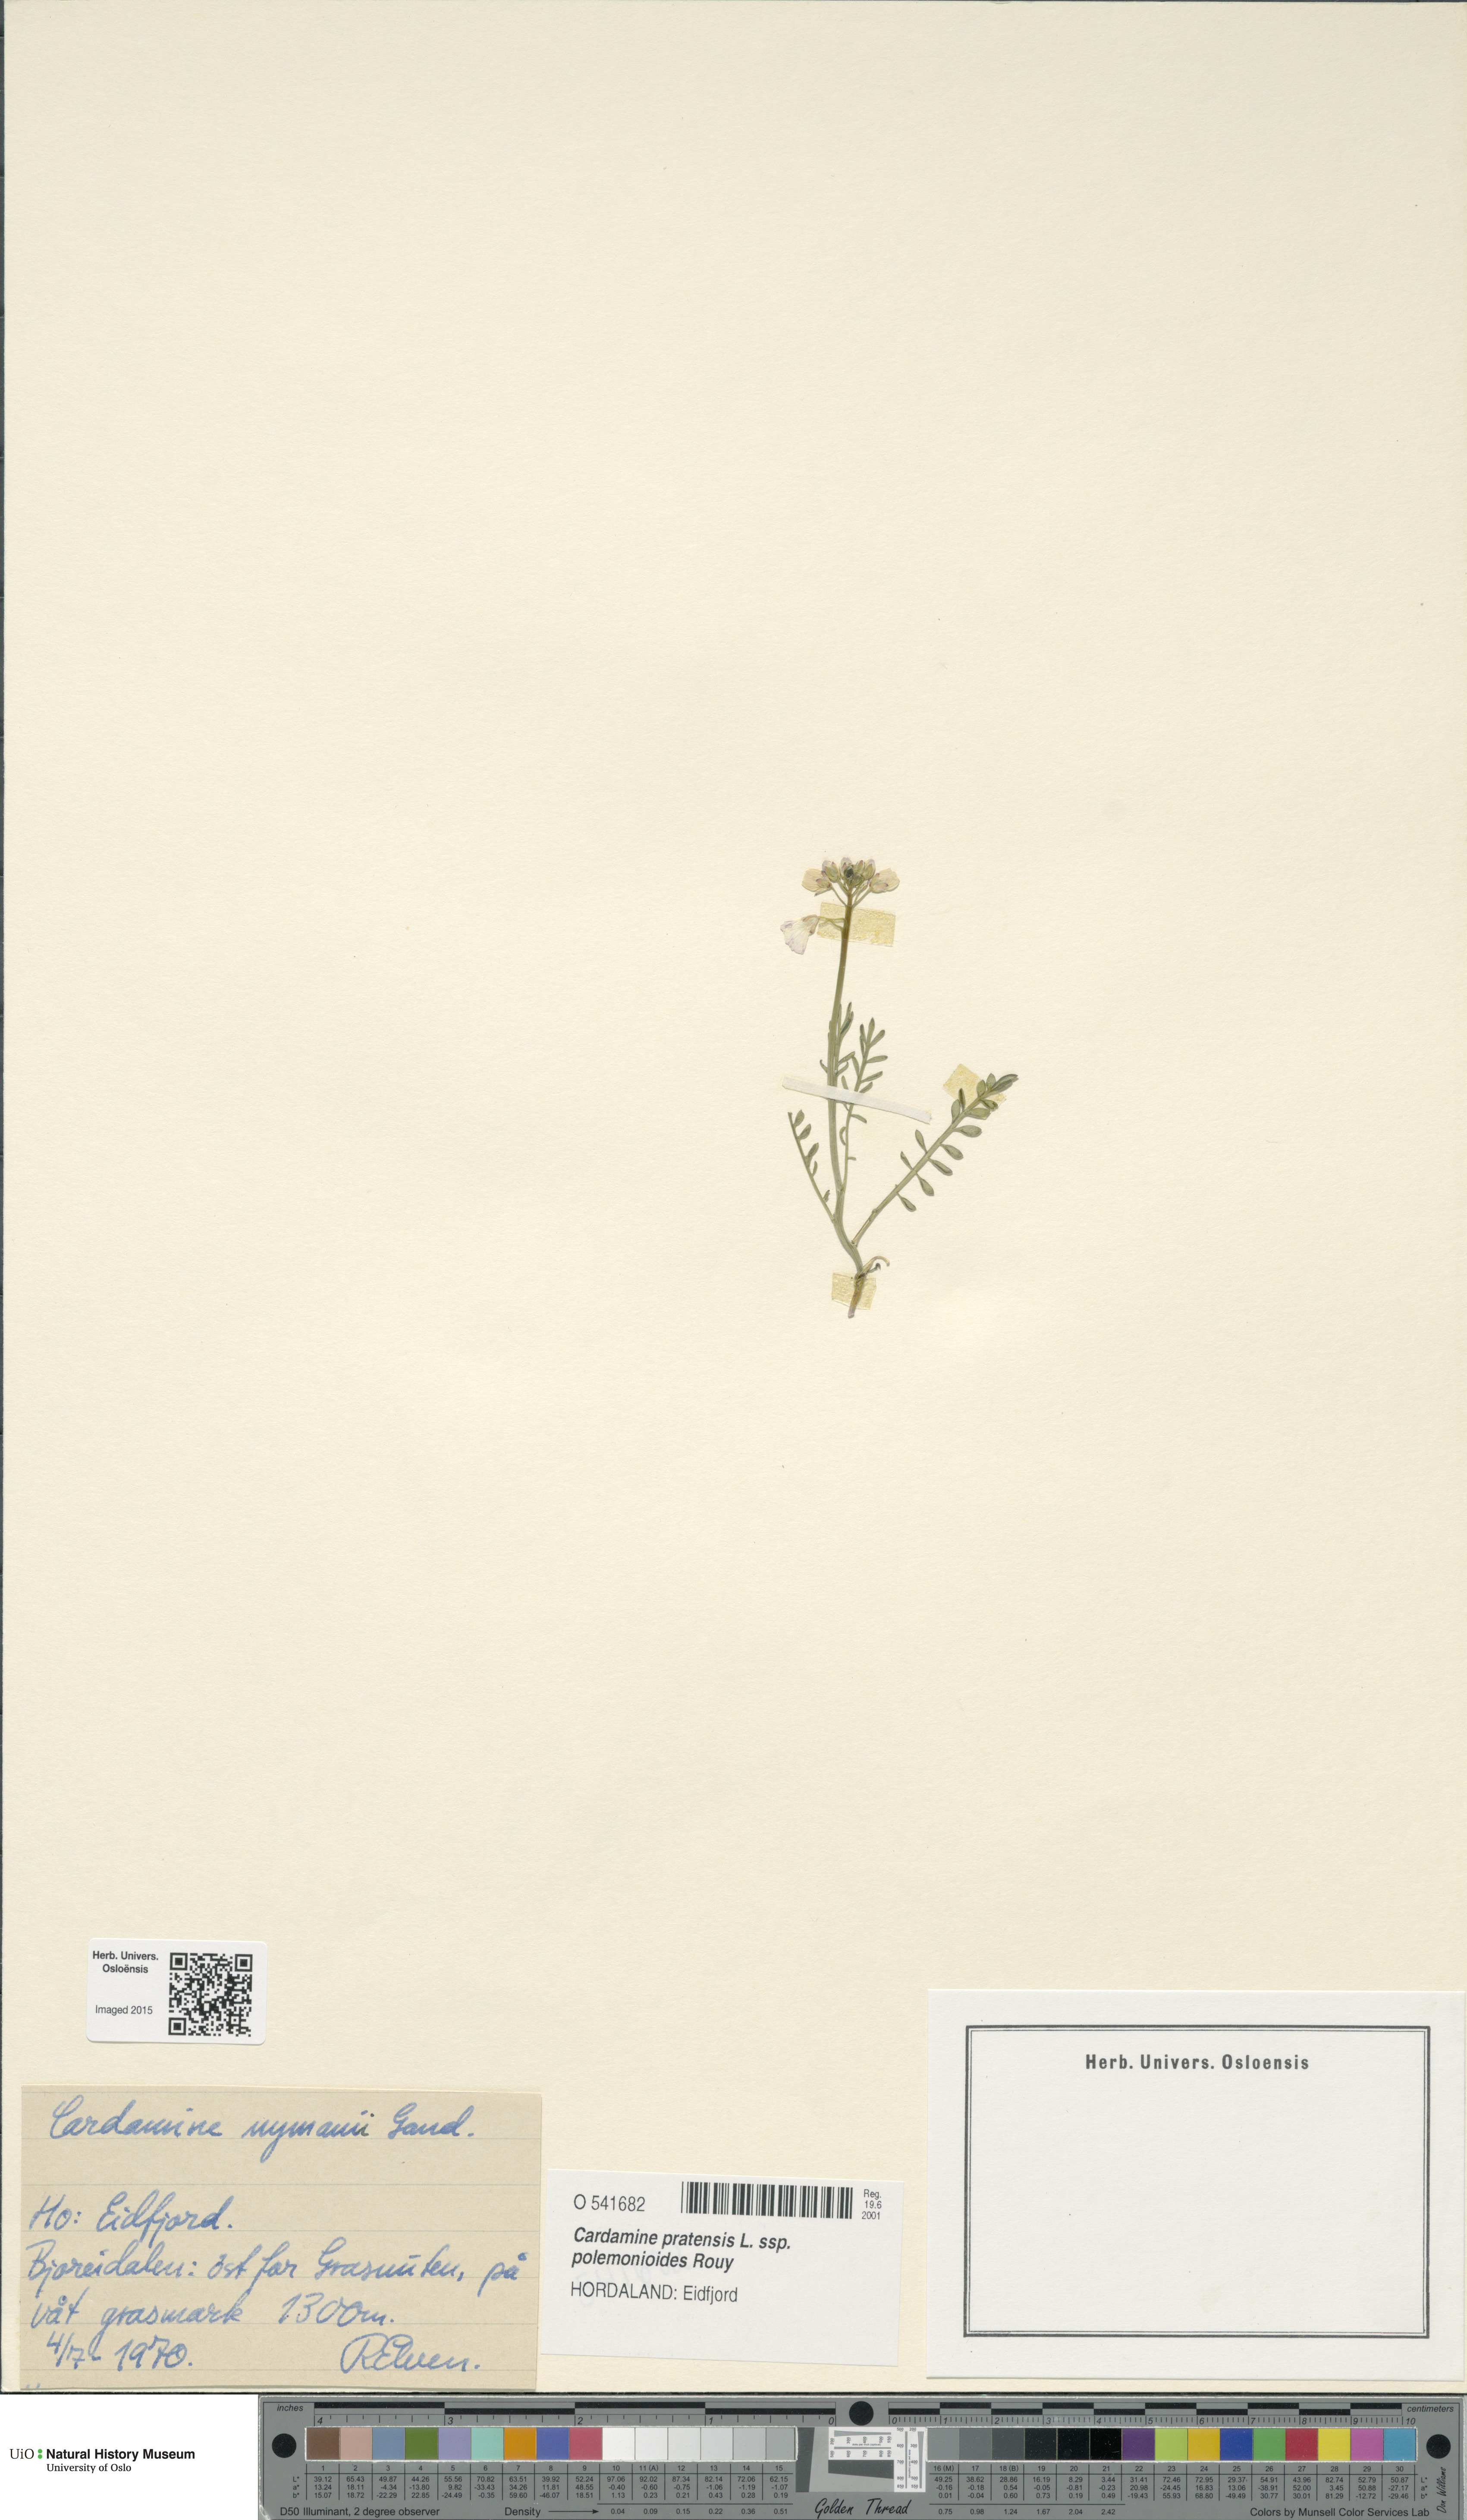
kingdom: Plantae
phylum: Tracheophyta
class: Magnoliopsida
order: Brassicales
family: Brassicaceae
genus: Cardamine
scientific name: Cardamine nymanii
